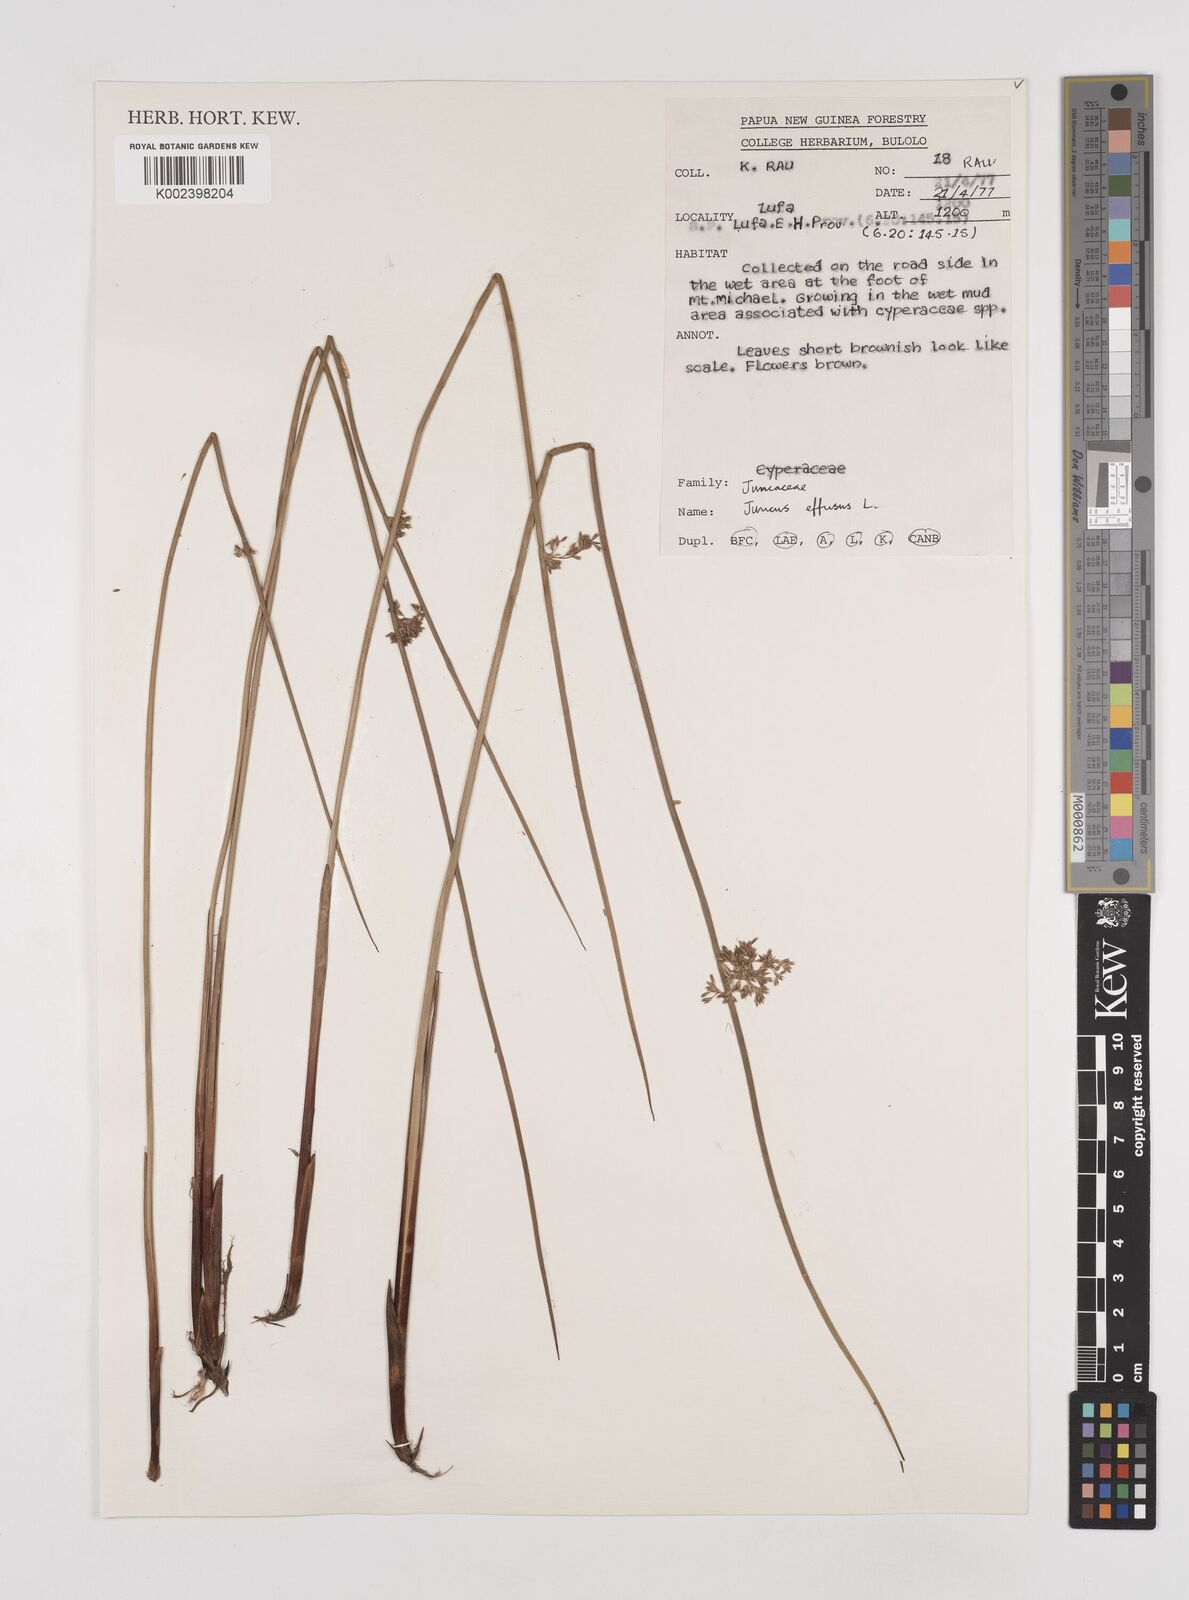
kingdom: Plantae
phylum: Tracheophyta
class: Liliopsida
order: Poales
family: Juncaceae
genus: Juncus
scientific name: Juncus decipiens
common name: Lamp rush
